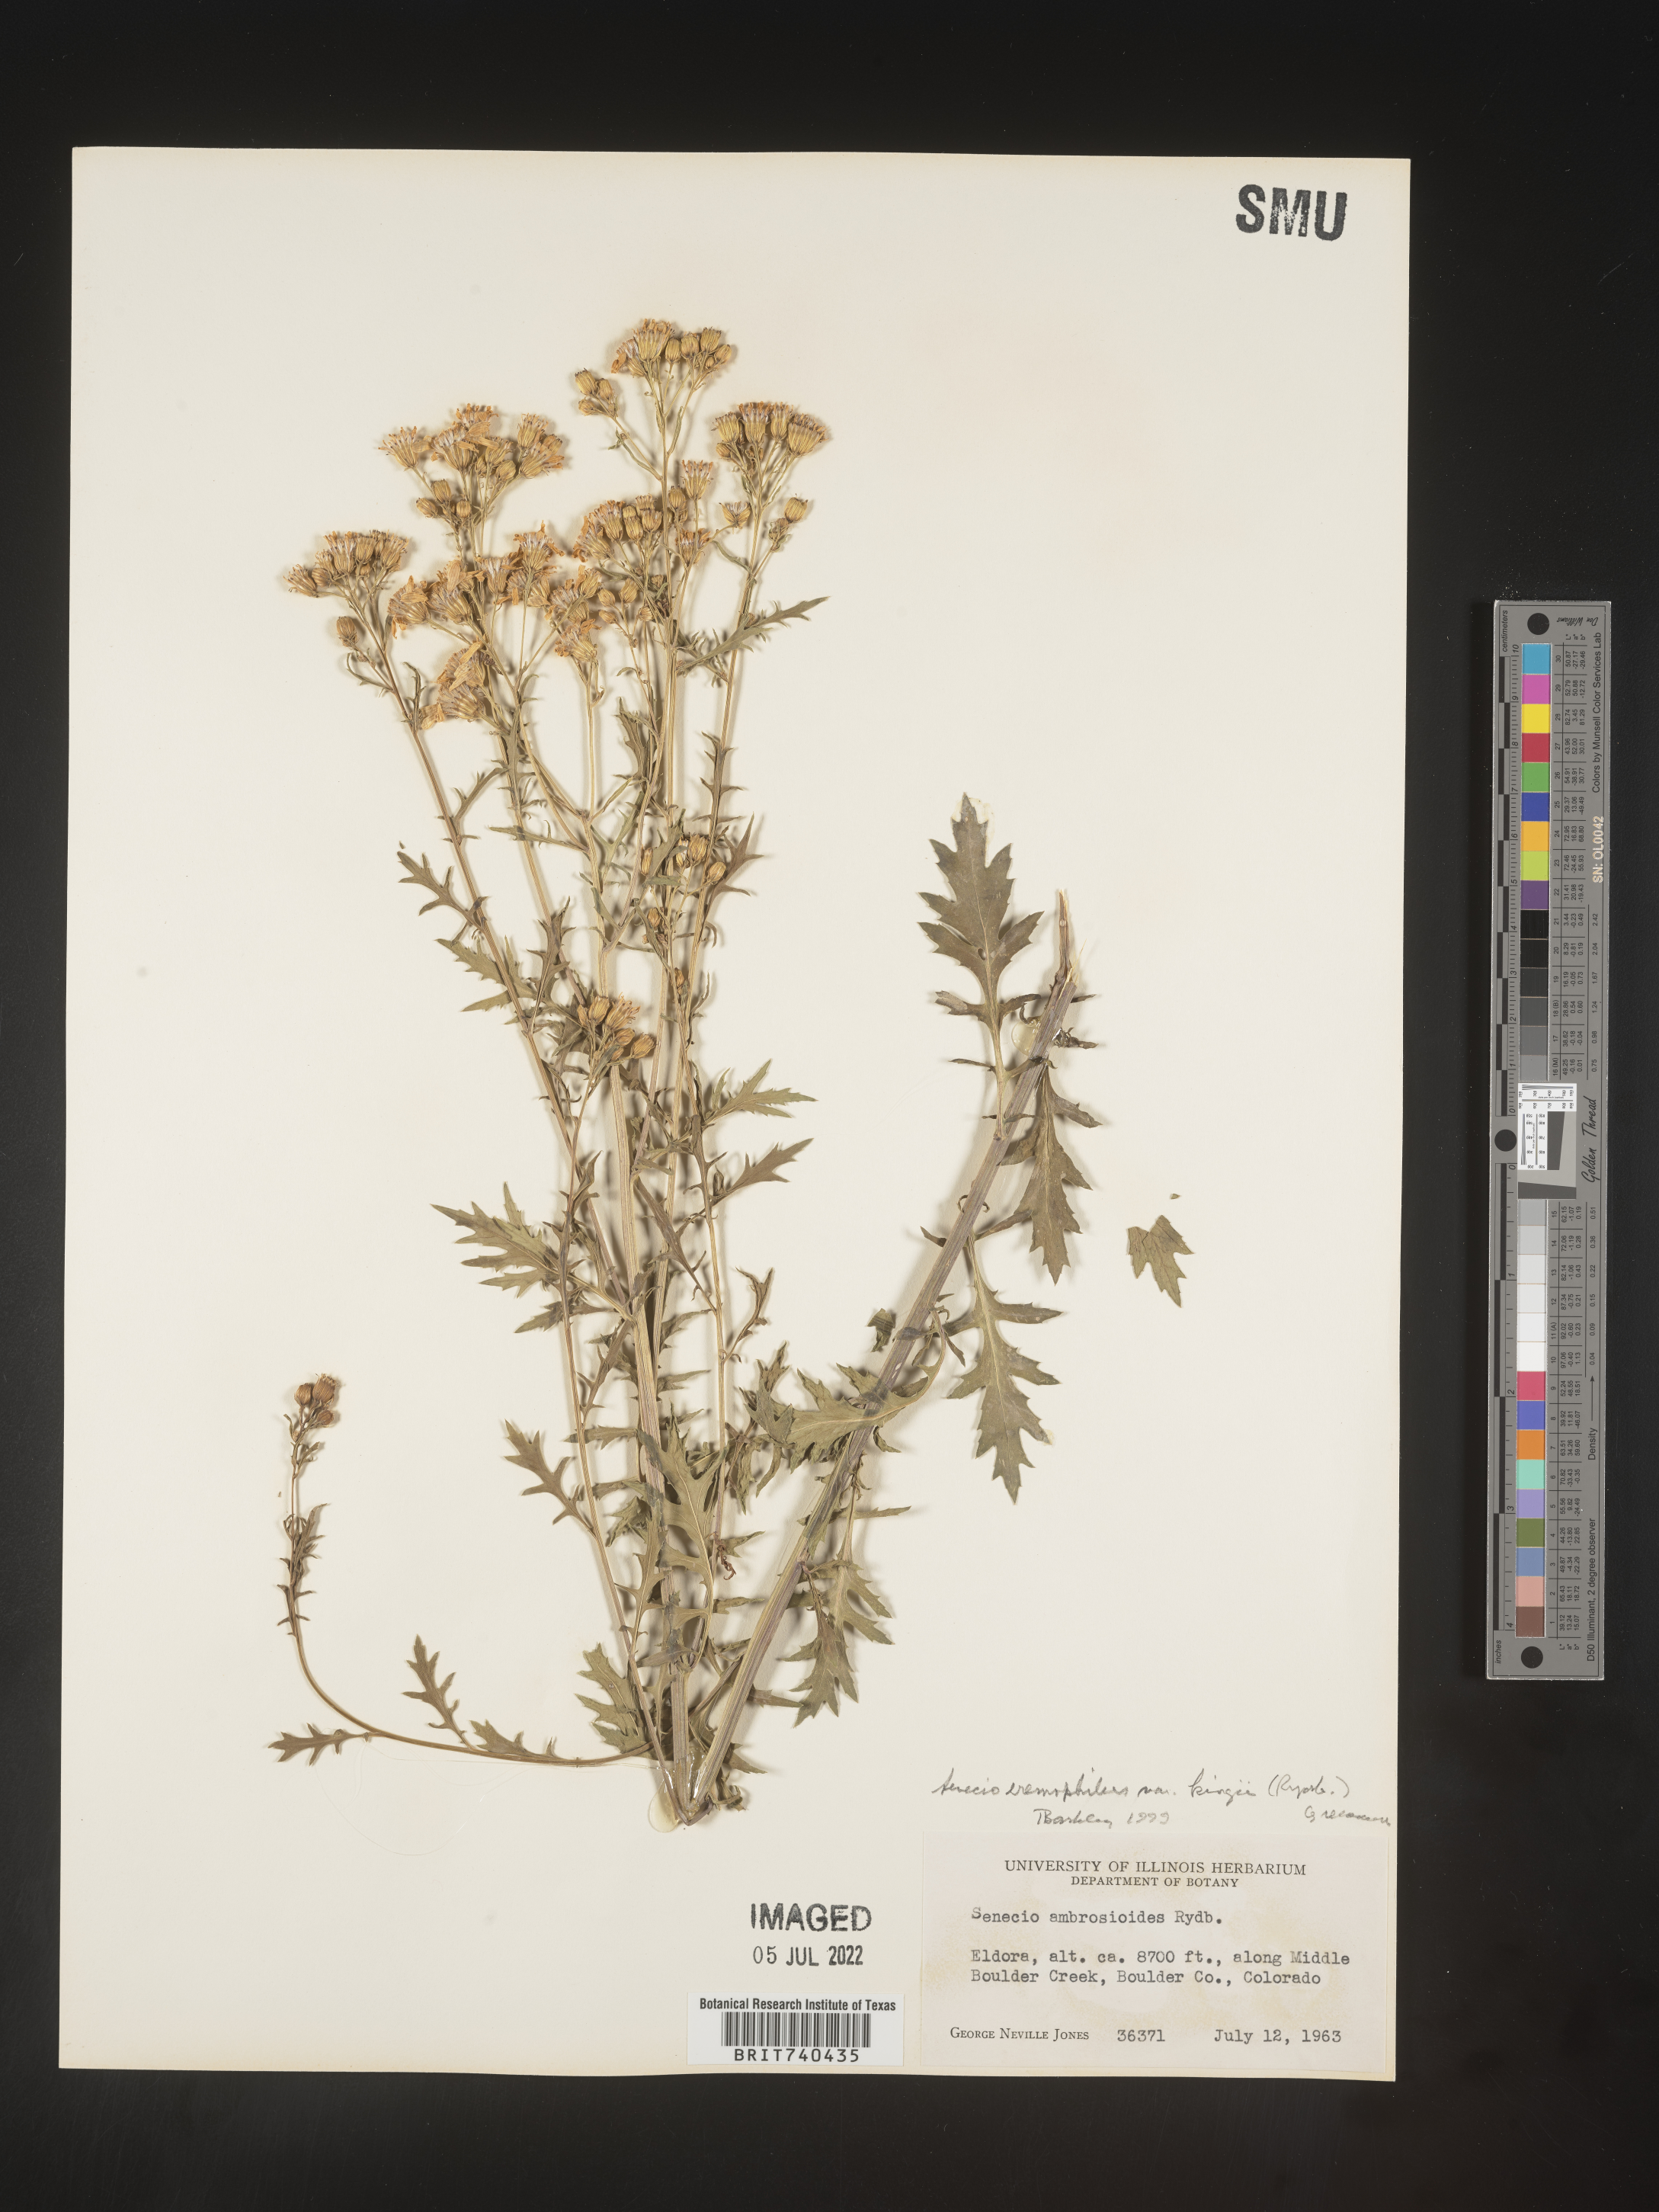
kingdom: Plantae
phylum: Tracheophyta
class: Magnoliopsida
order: Asterales
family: Asteraceae
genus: Senecio
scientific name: Senecio eremophilus
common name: Desert ragwort
